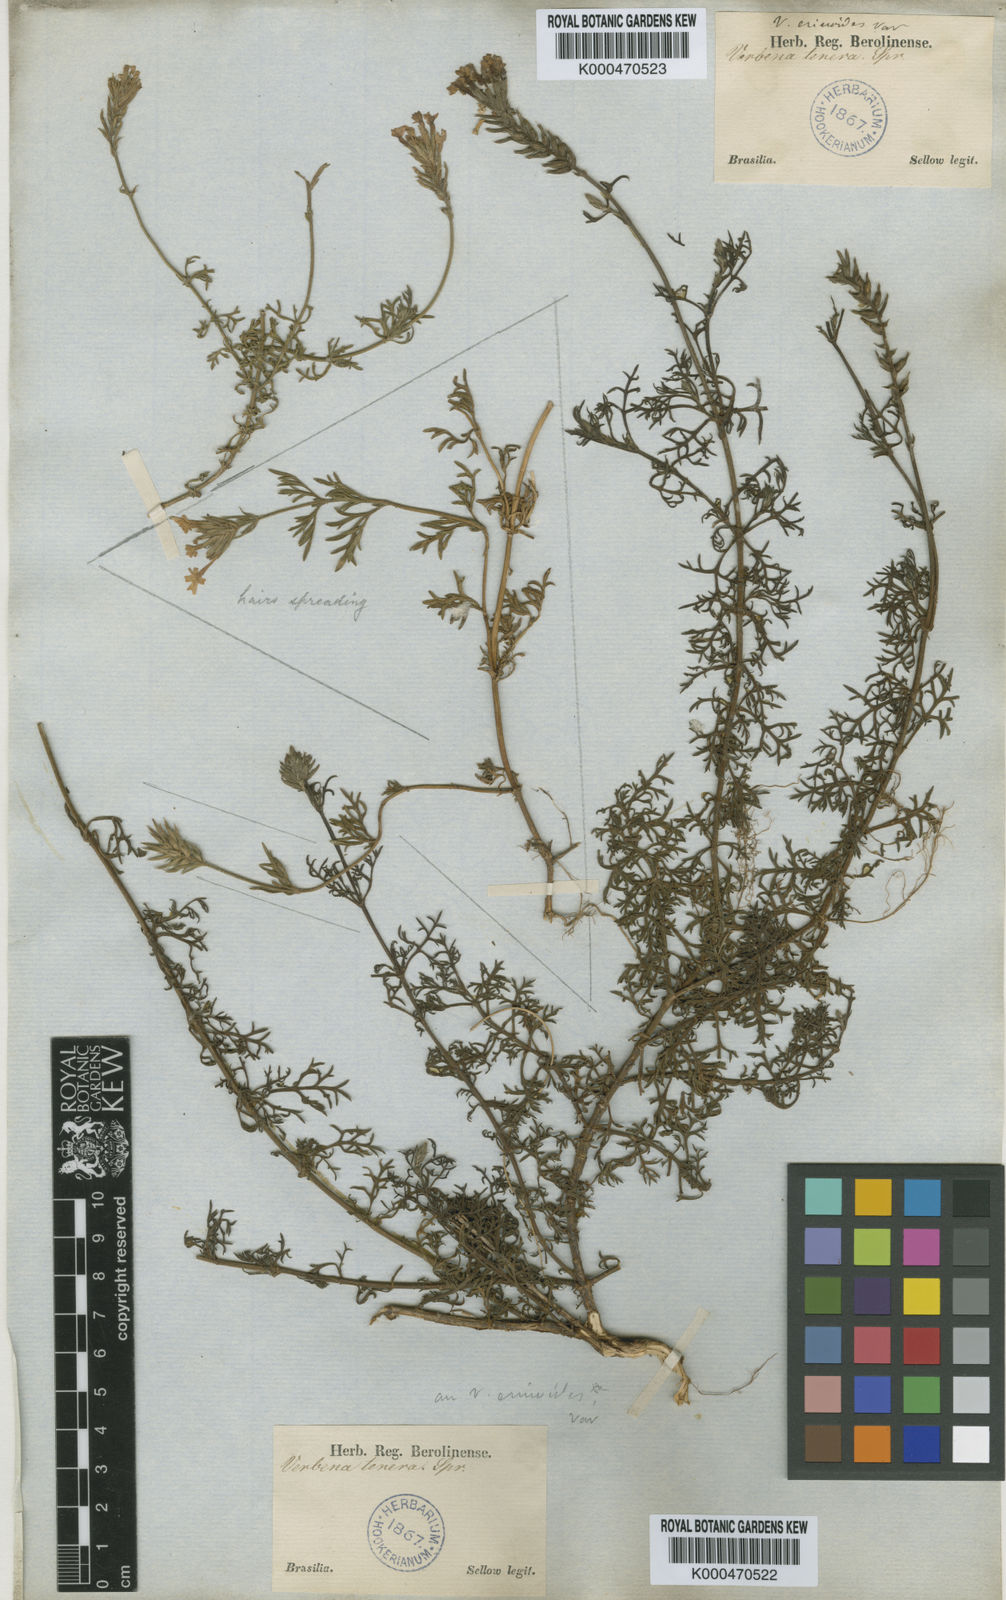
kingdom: Plantae
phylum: Tracheophyta
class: Magnoliopsida
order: Lamiales
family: Verbenaceae
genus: Verbena
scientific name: Verbena tenera
